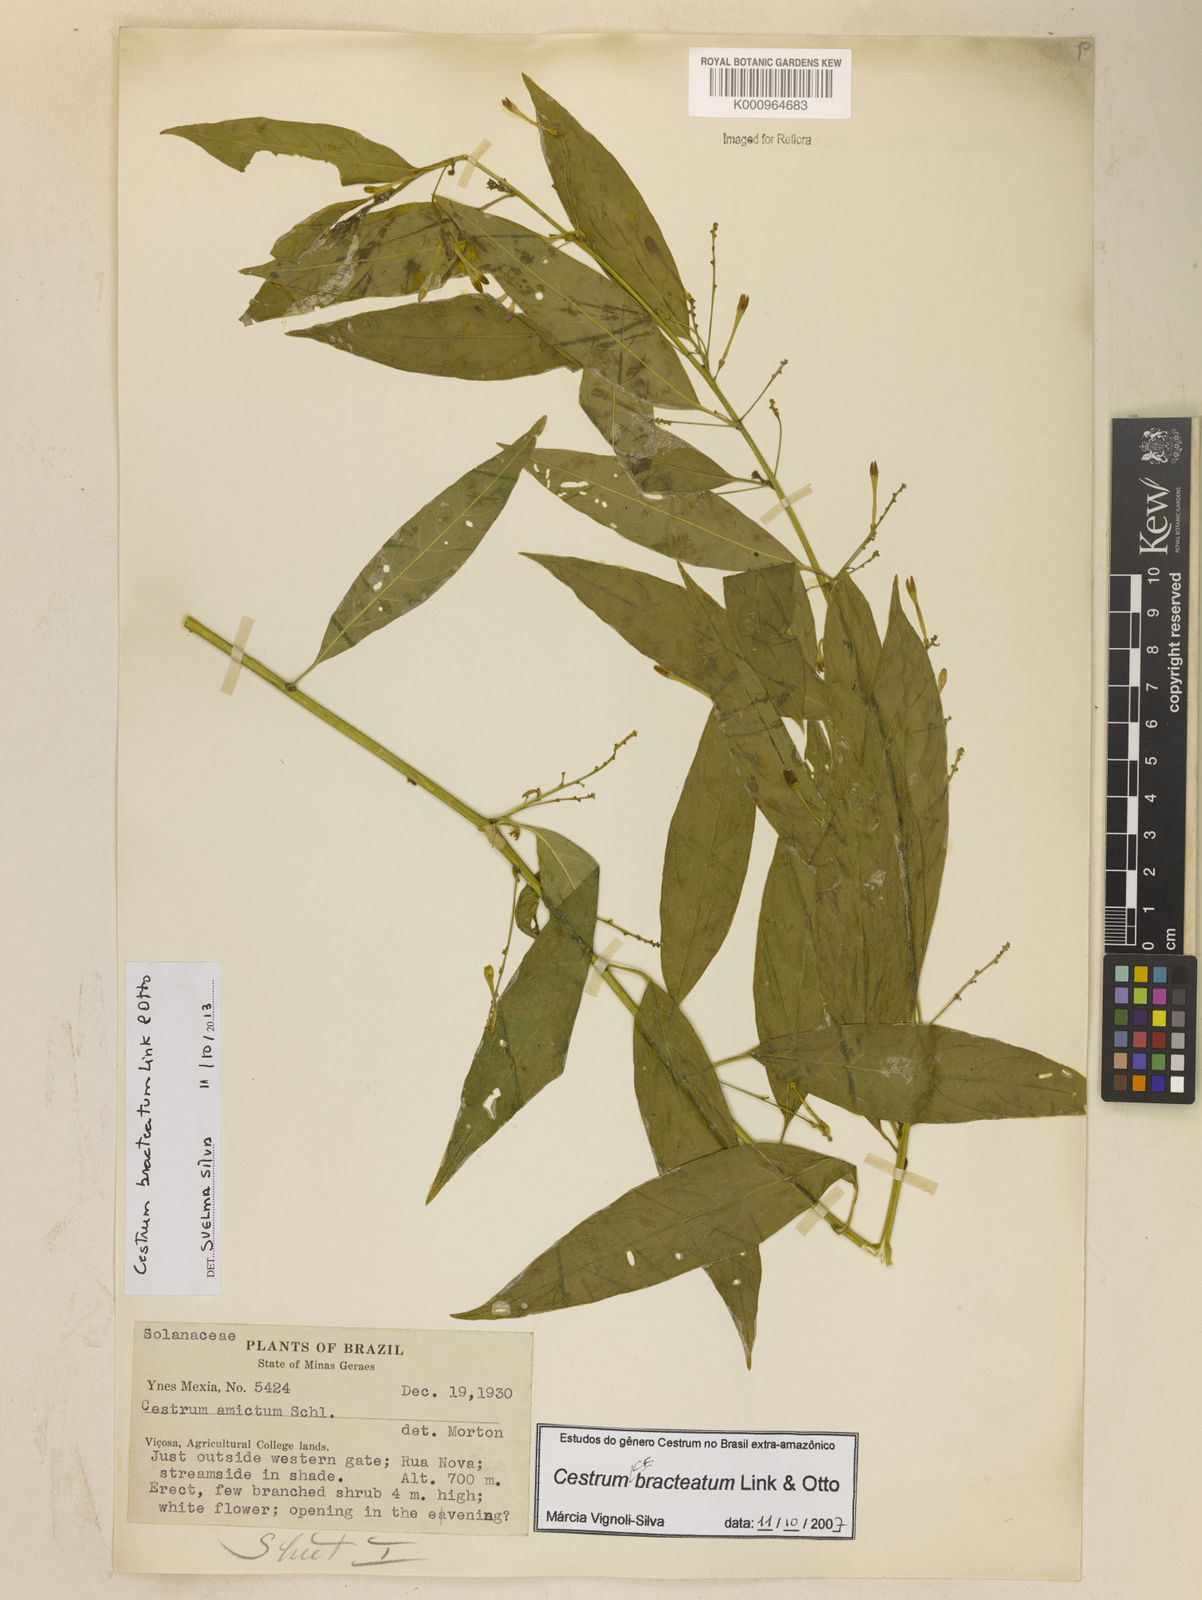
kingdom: Plantae
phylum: Tracheophyta
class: Magnoliopsida
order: Solanales
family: Solanaceae
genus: Cestrum
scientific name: Cestrum bracteatum
